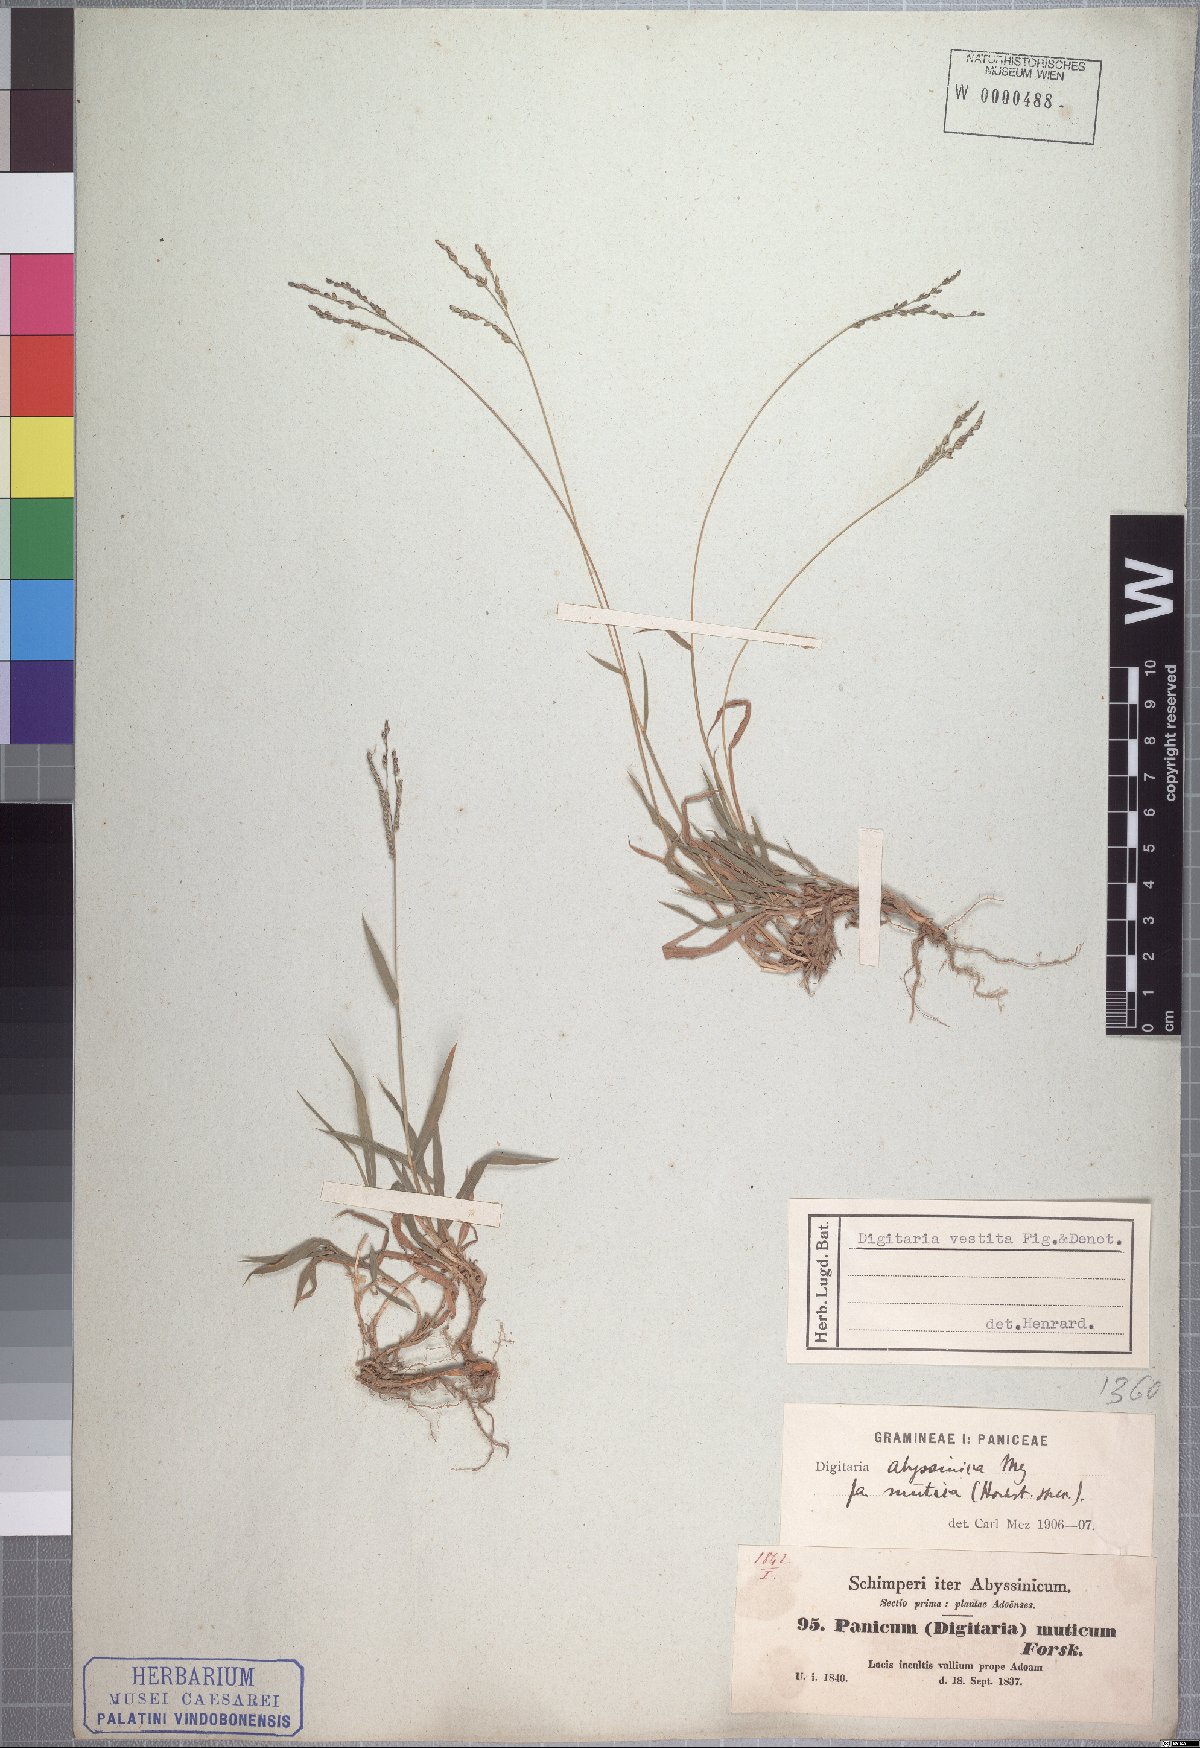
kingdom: Plantae
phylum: Tracheophyta
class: Liliopsida
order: Poales
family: Poaceae
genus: Digitaria
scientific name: Digitaria abyssinica
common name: African couchgrass
